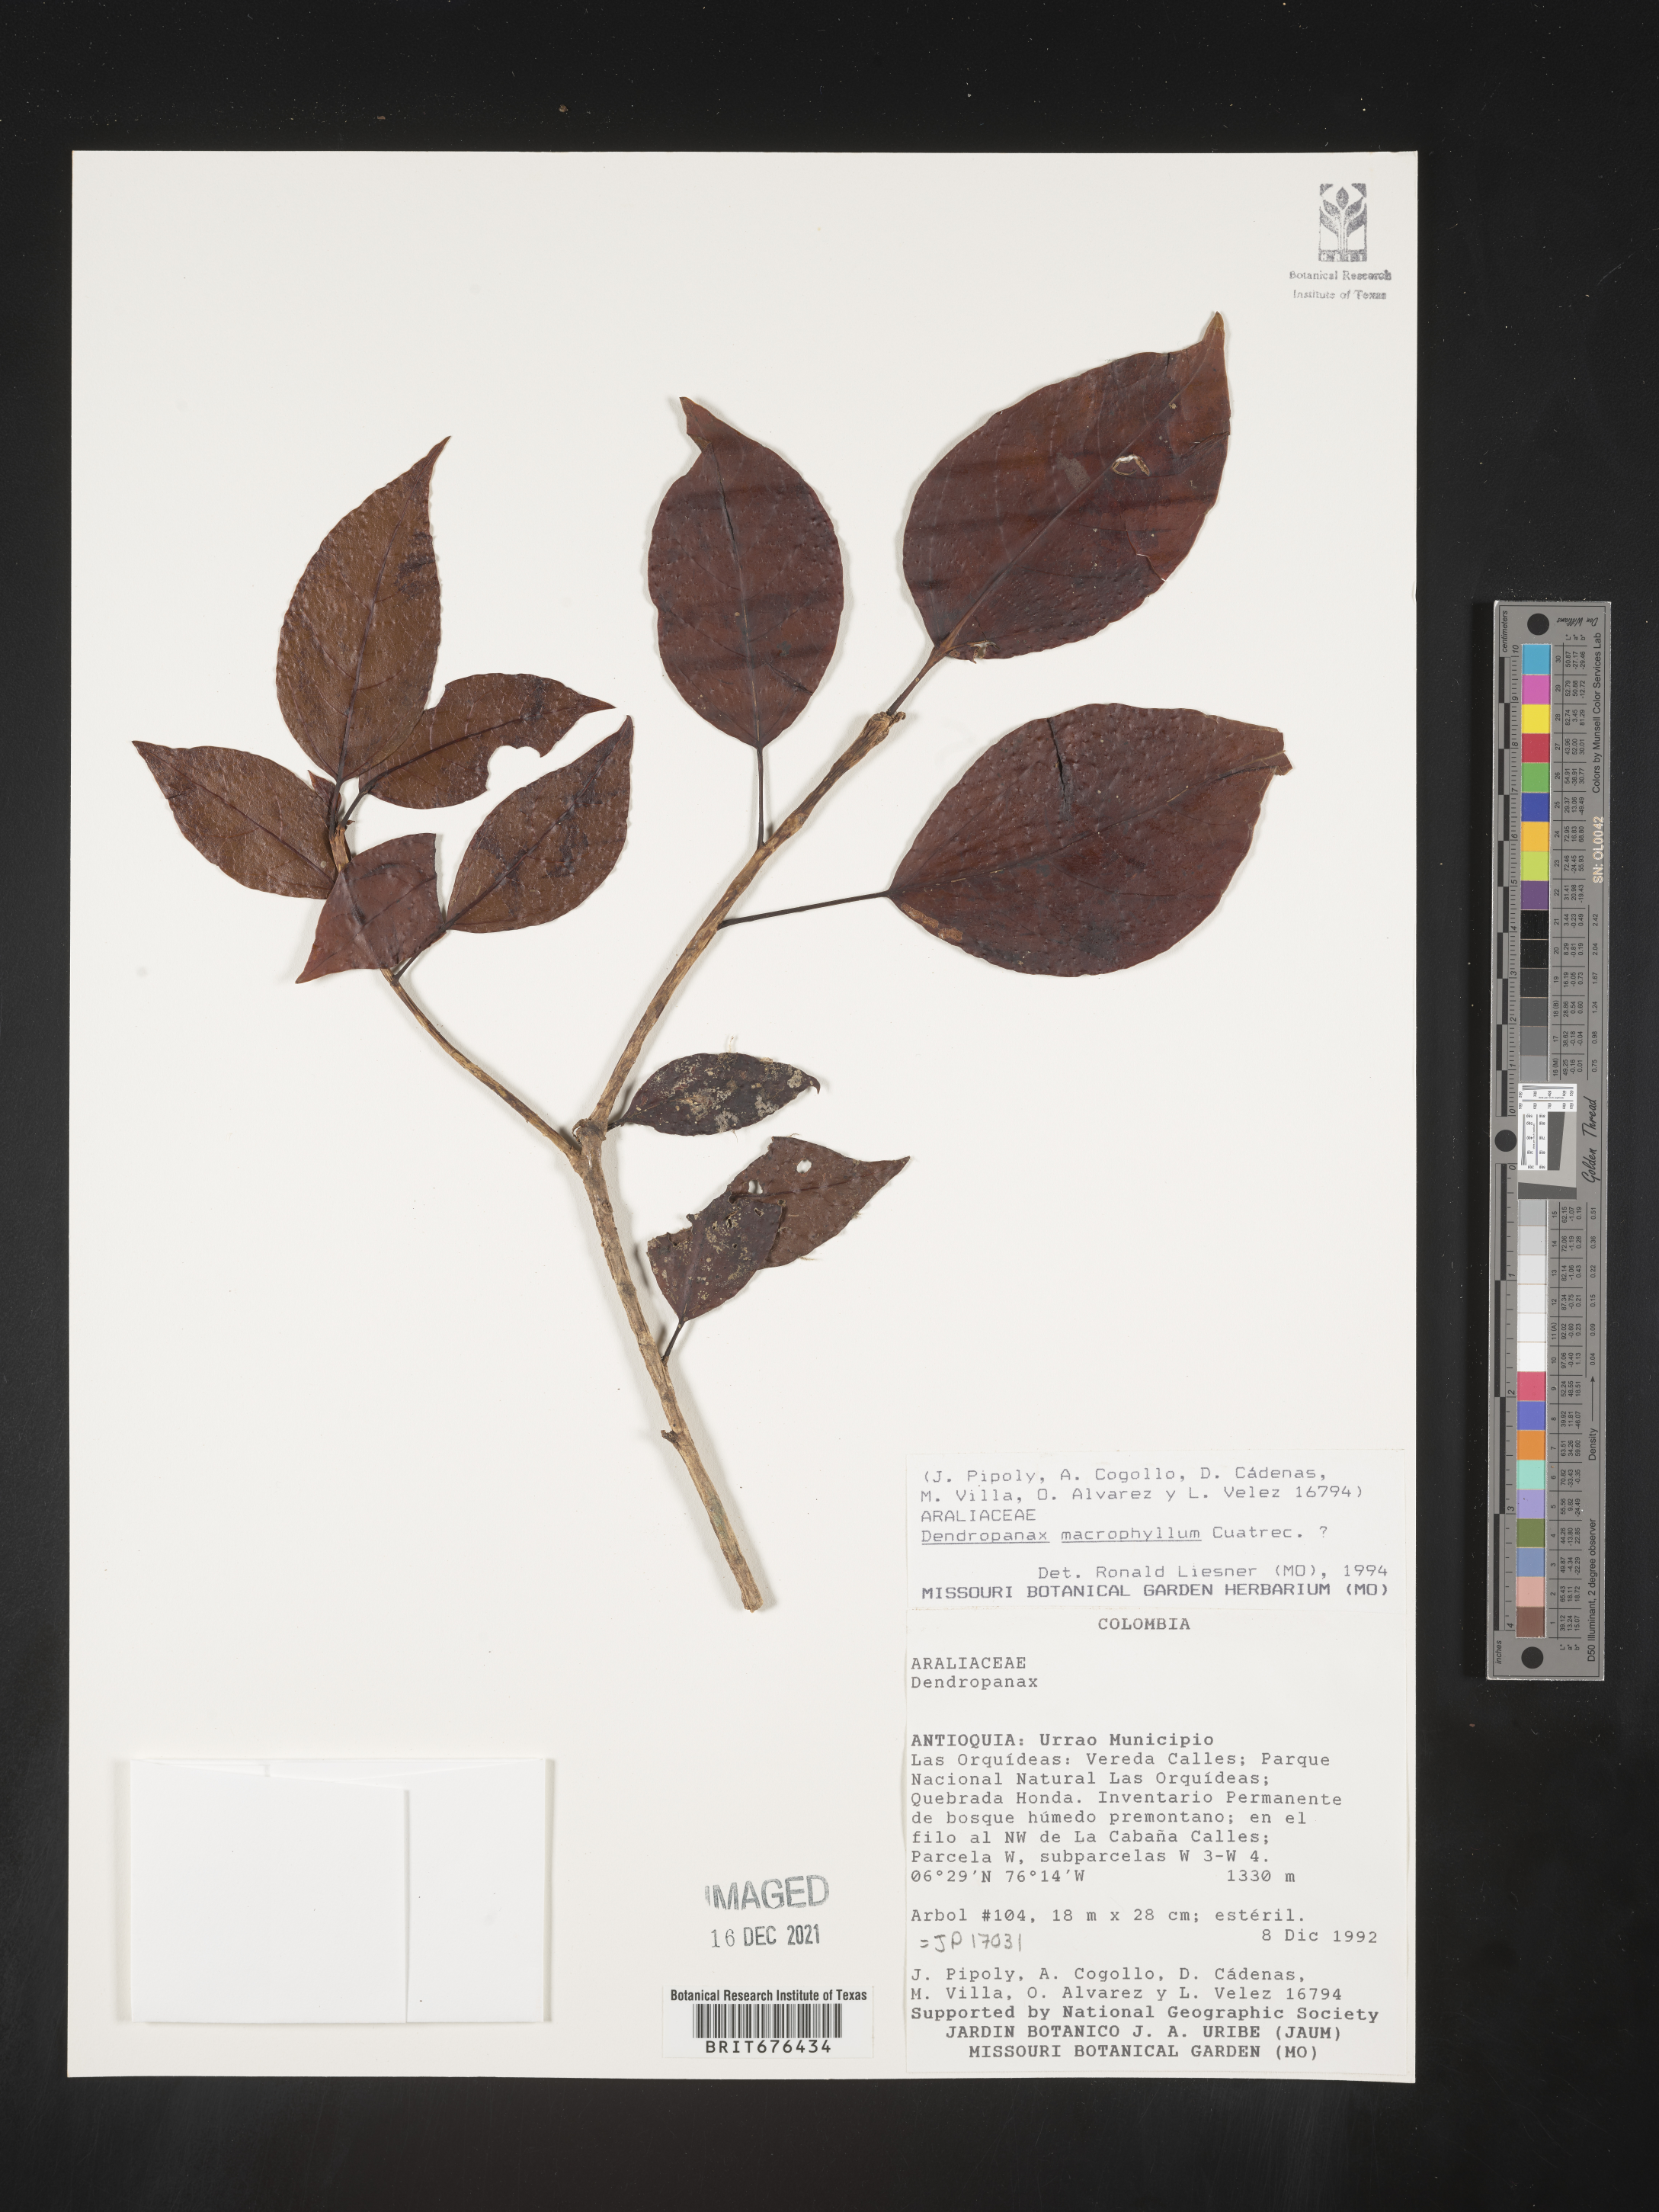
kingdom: Plantae
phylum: Tracheophyta
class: Magnoliopsida
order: Apiales
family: Araliaceae
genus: Dendropanax
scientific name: Dendropanax
